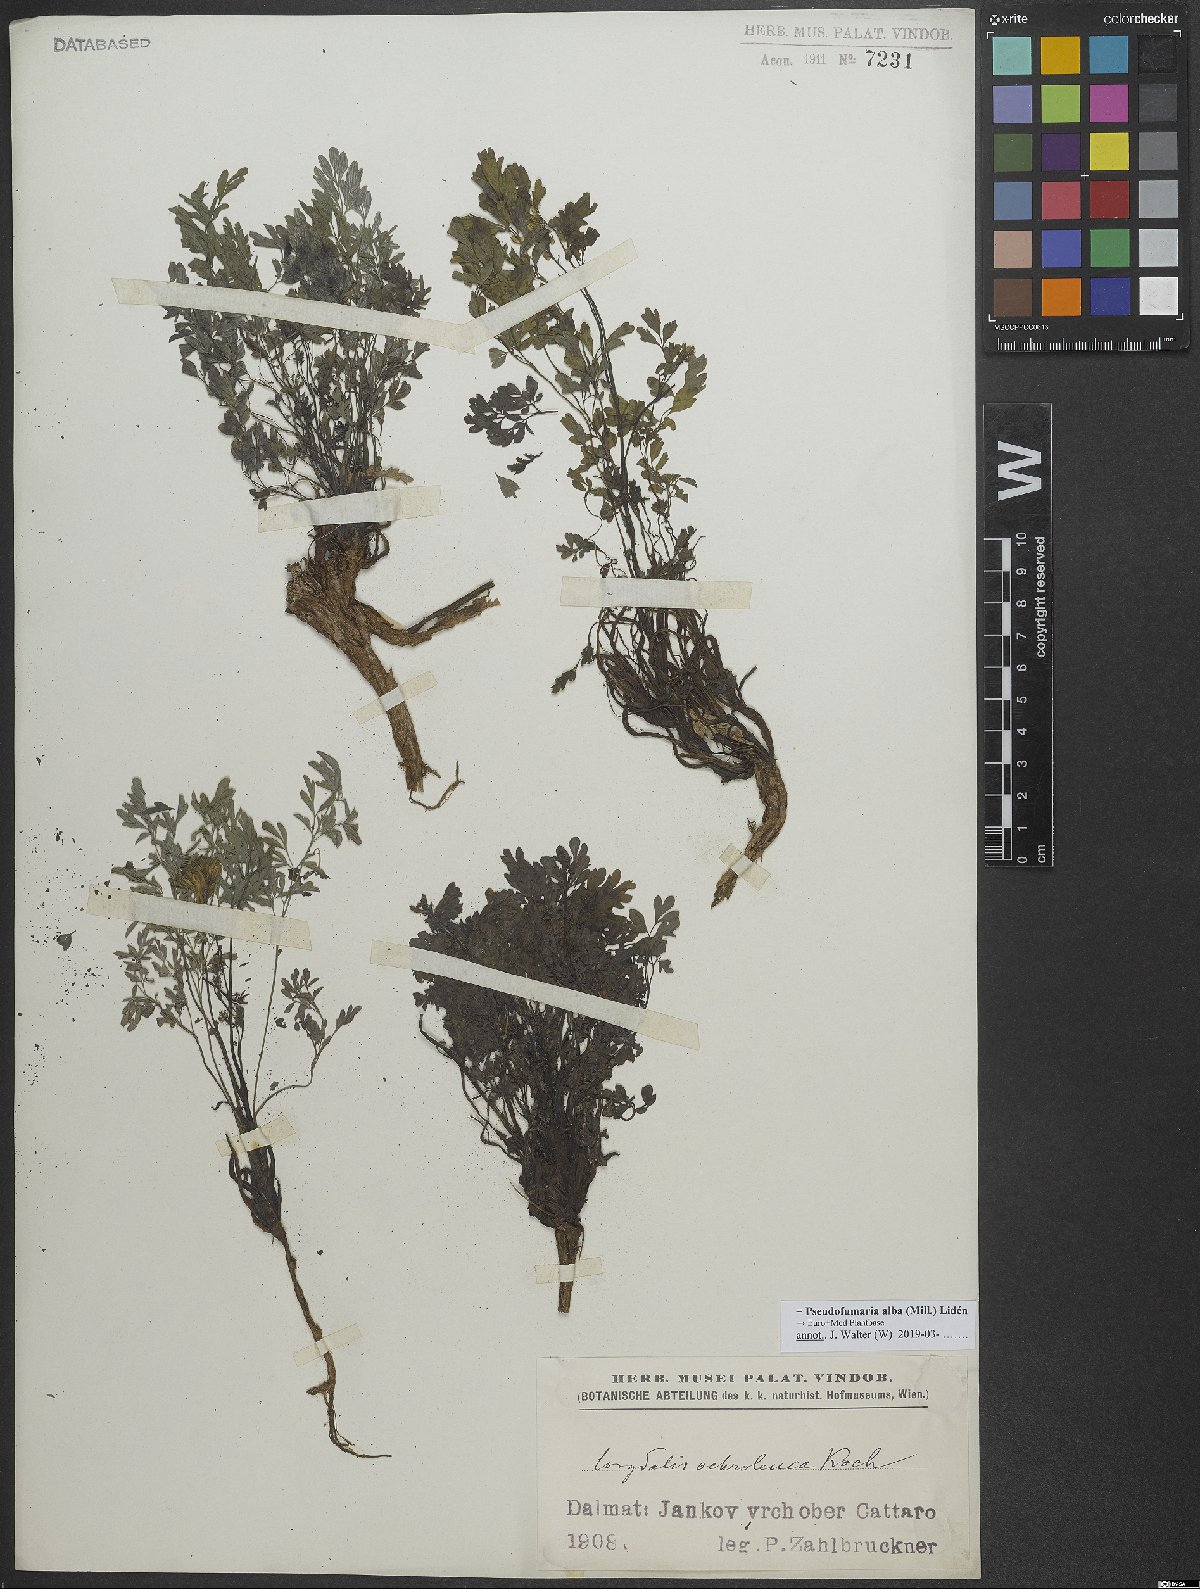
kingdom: Plantae
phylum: Tracheophyta
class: Magnoliopsida
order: Ranunculales
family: Papaveraceae
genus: Pseudofumaria
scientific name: Pseudofumaria alba
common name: Pale corydalis
